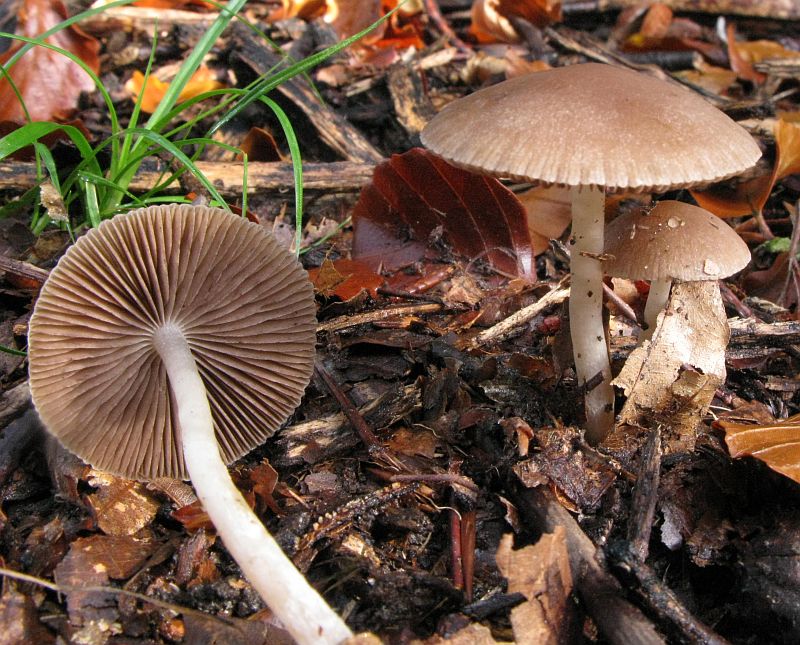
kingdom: Fungi
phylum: Basidiomycota
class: Agaricomycetes
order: Agaricales
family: Psathyrellaceae
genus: Psathyrella
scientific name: Psathyrella fibrillosa
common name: almindelig mørkhat
